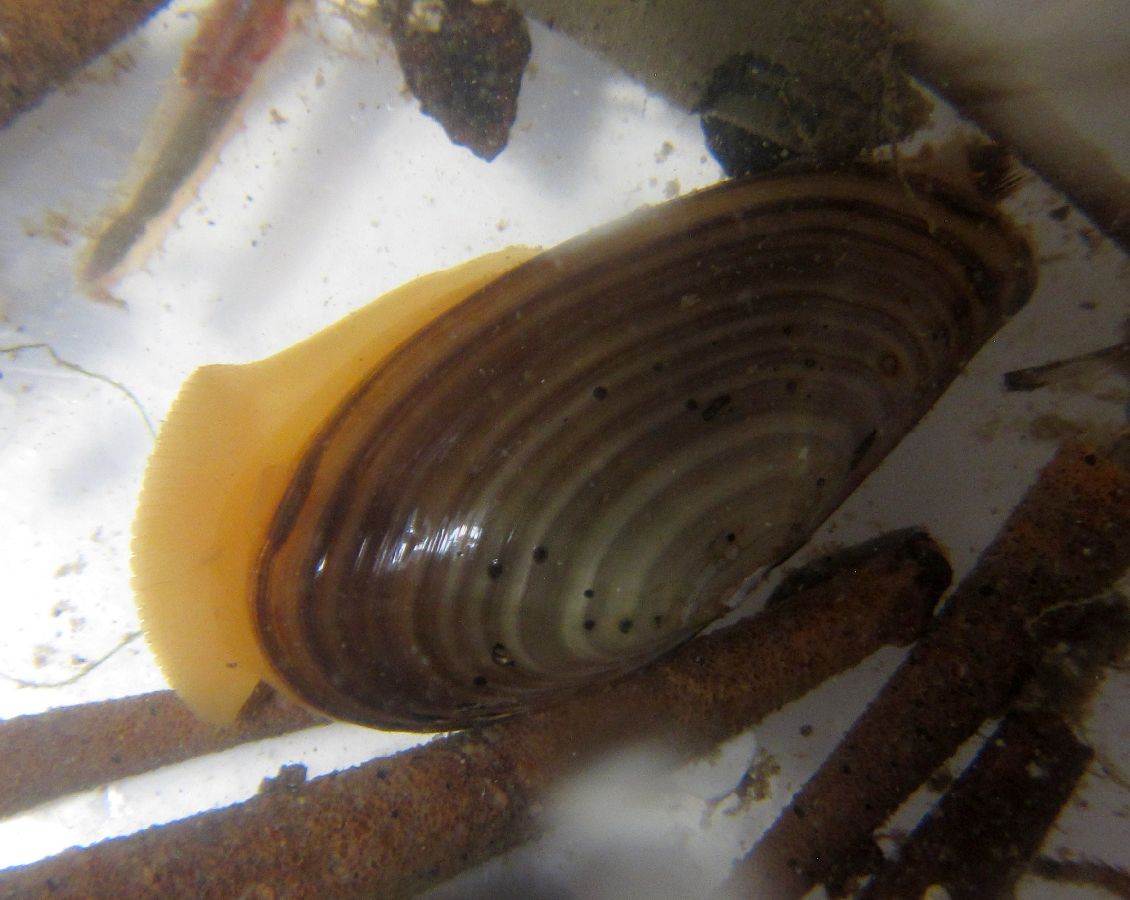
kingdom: Animalia
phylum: Mollusca
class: Bivalvia
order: Nuculanida
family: Yoldiidae
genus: Yoldia
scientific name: Yoldia hyperborea
